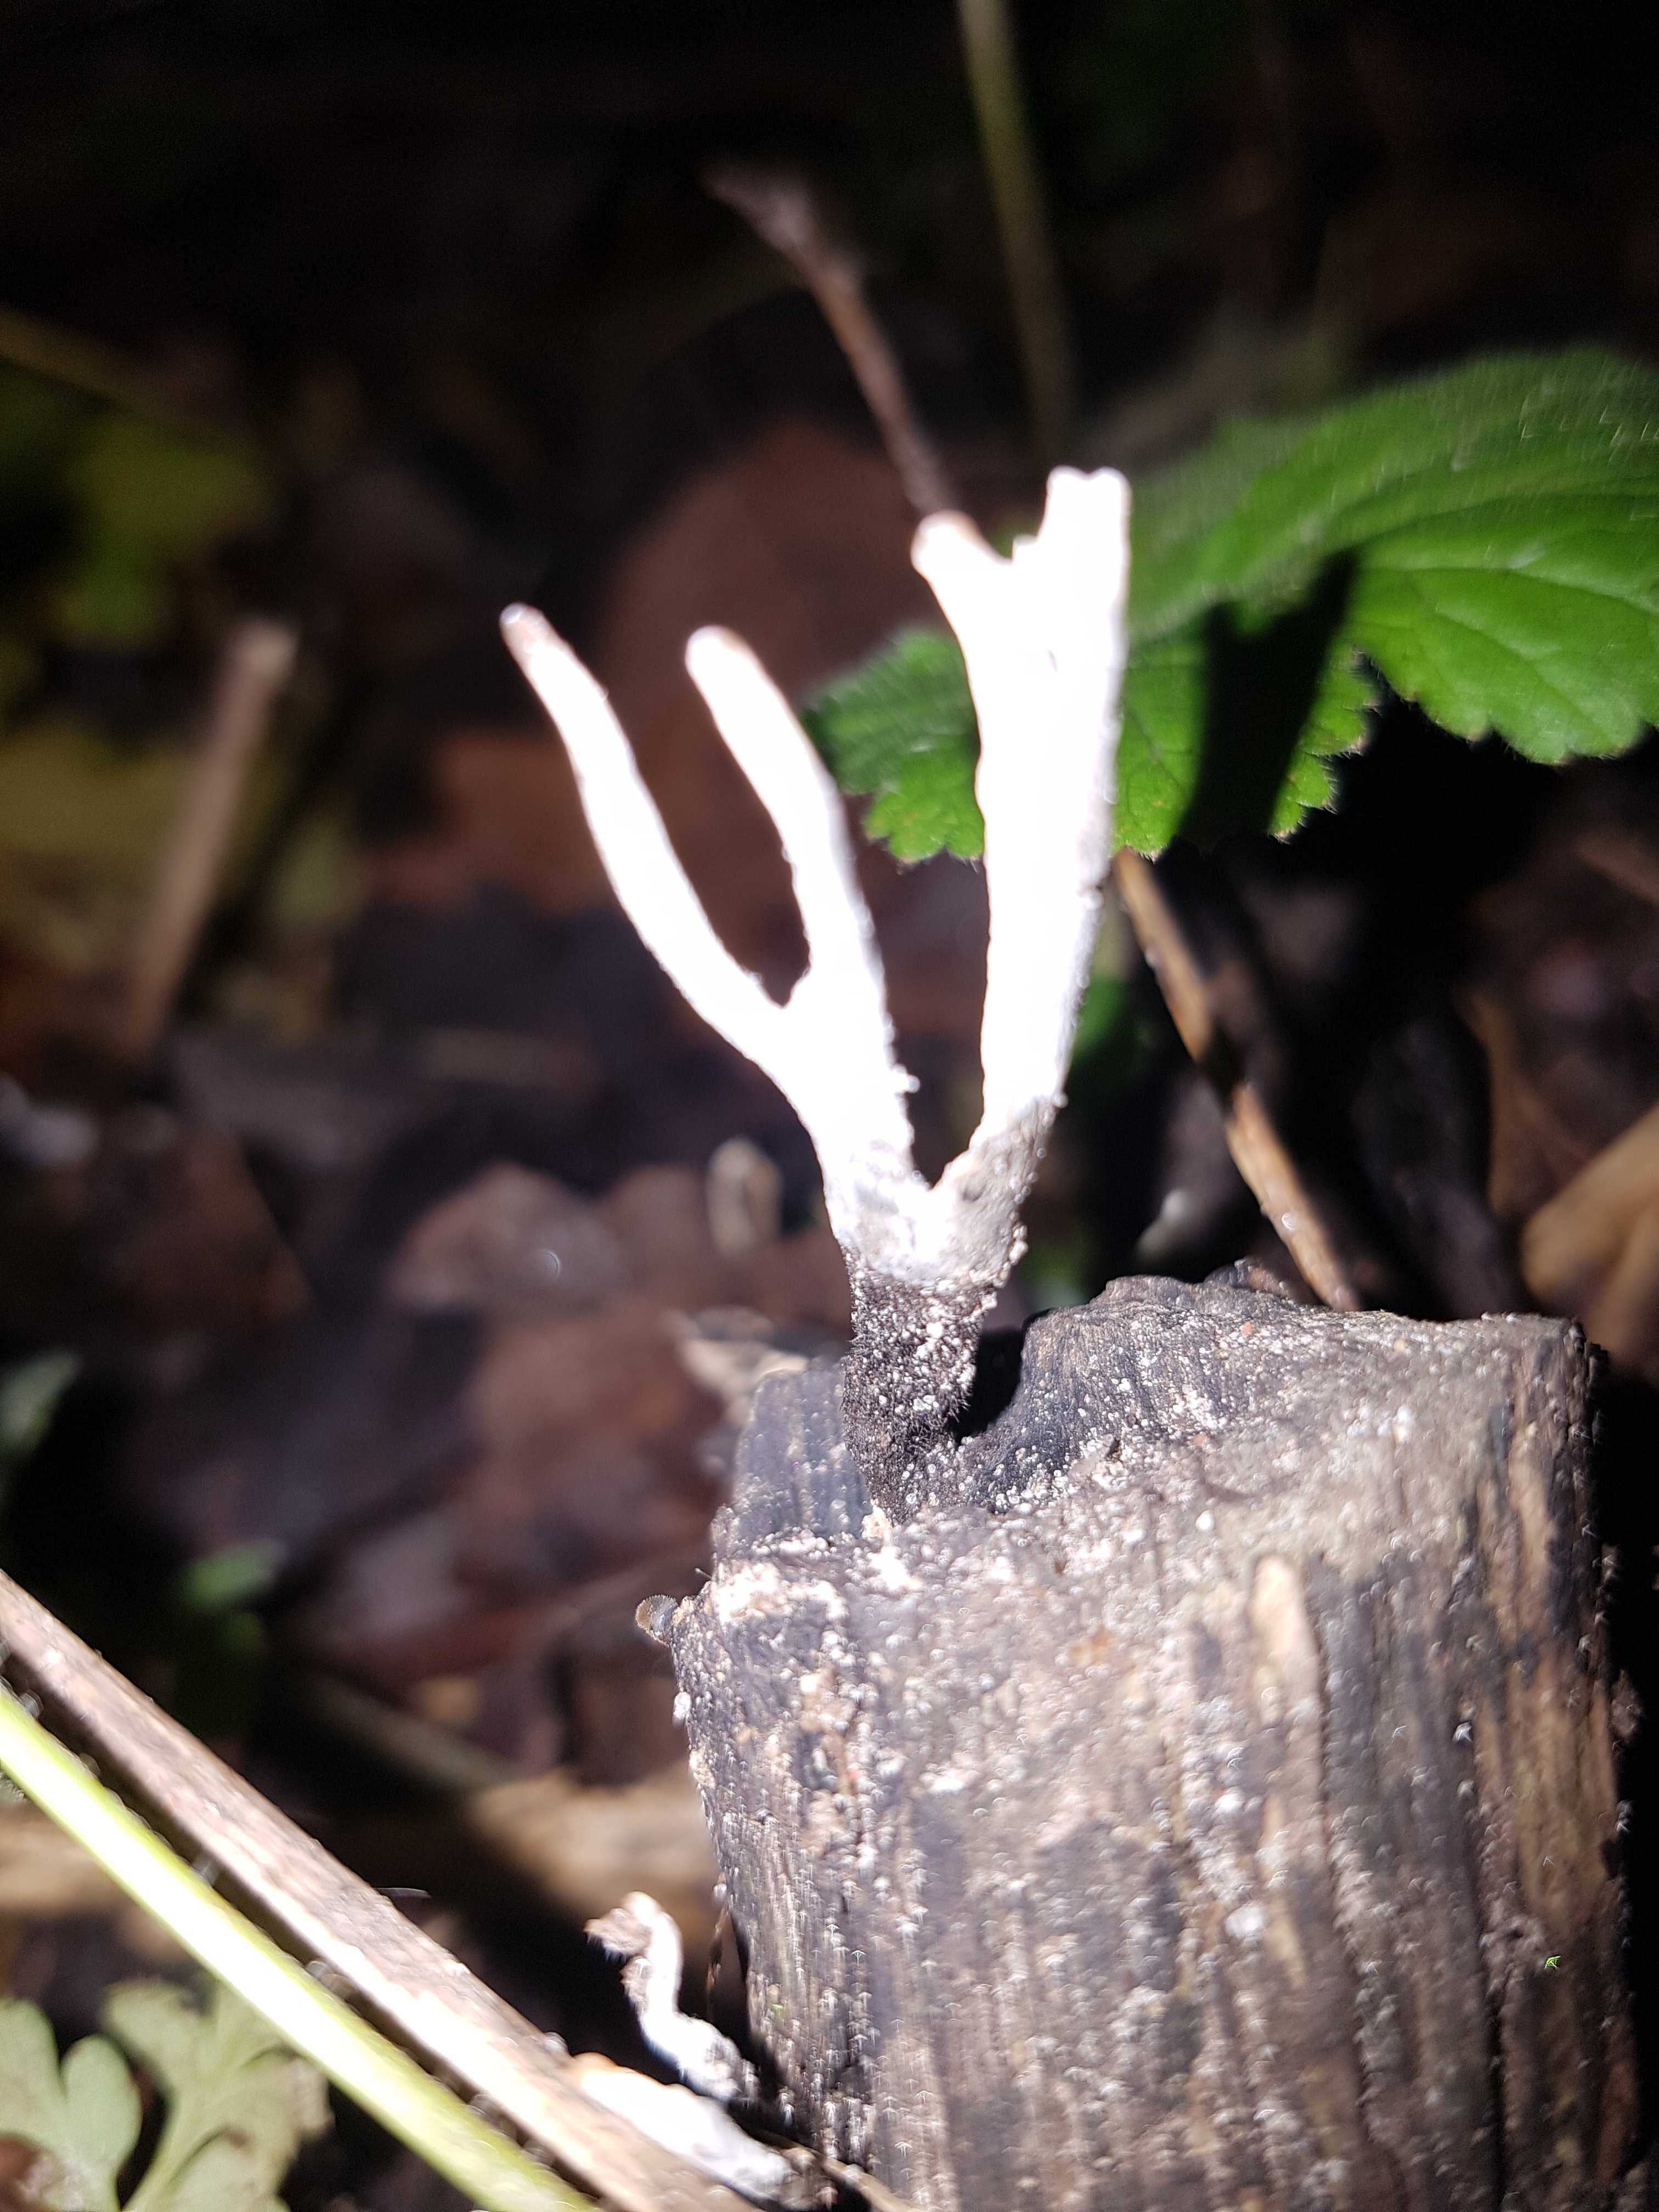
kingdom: Fungi
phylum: Ascomycota
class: Sordariomycetes
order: Xylariales
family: Xylariaceae
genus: Xylaria
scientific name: Xylaria hypoxylon
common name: grenet stødsvamp
